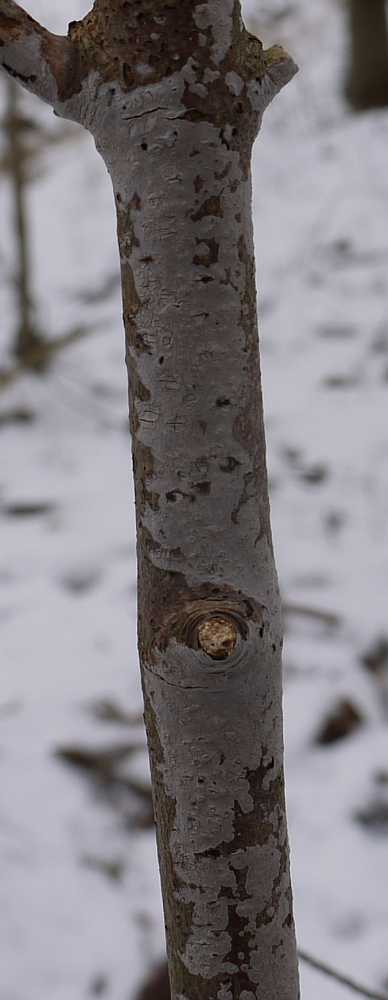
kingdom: Fungi
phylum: Basidiomycota
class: Agaricomycetes
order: Russulales
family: Peniophoraceae
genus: Peniophora
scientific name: Peniophora cinerea
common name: grå voksskind
